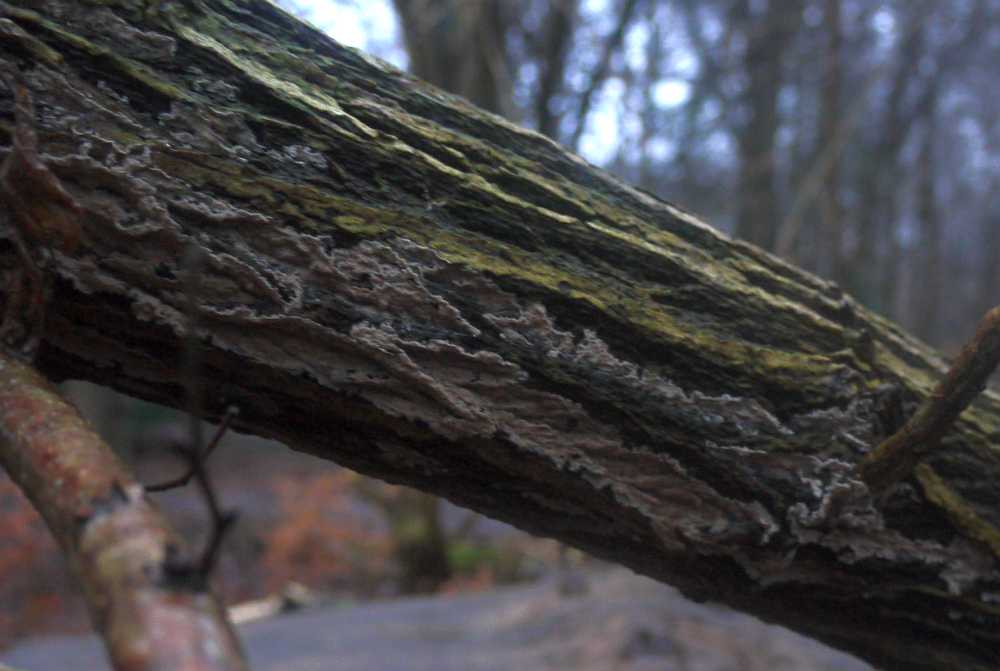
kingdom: Fungi
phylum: Basidiomycota
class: Agaricomycetes
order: Agaricales
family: Physalacriaceae
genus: Cylindrobasidium
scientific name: Cylindrobasidium evolvens
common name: sprækkehinde
